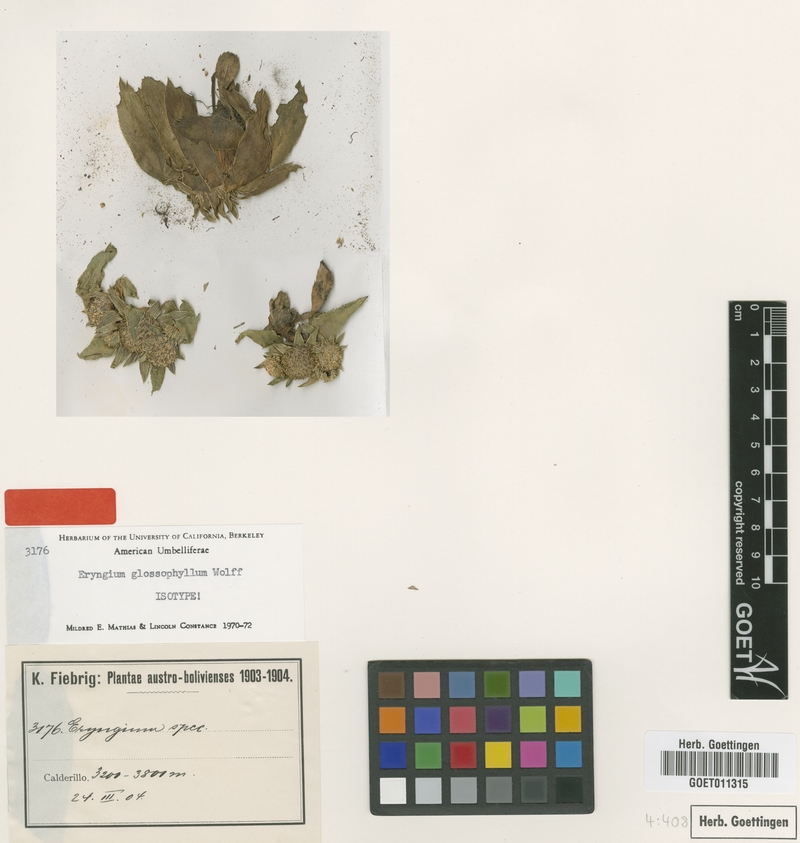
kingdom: Plantae
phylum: Tracheophyta
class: Magnoliopsida
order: Apiales
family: Apiaceae
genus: Eryngium
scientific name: Eryngium glossophyllum
